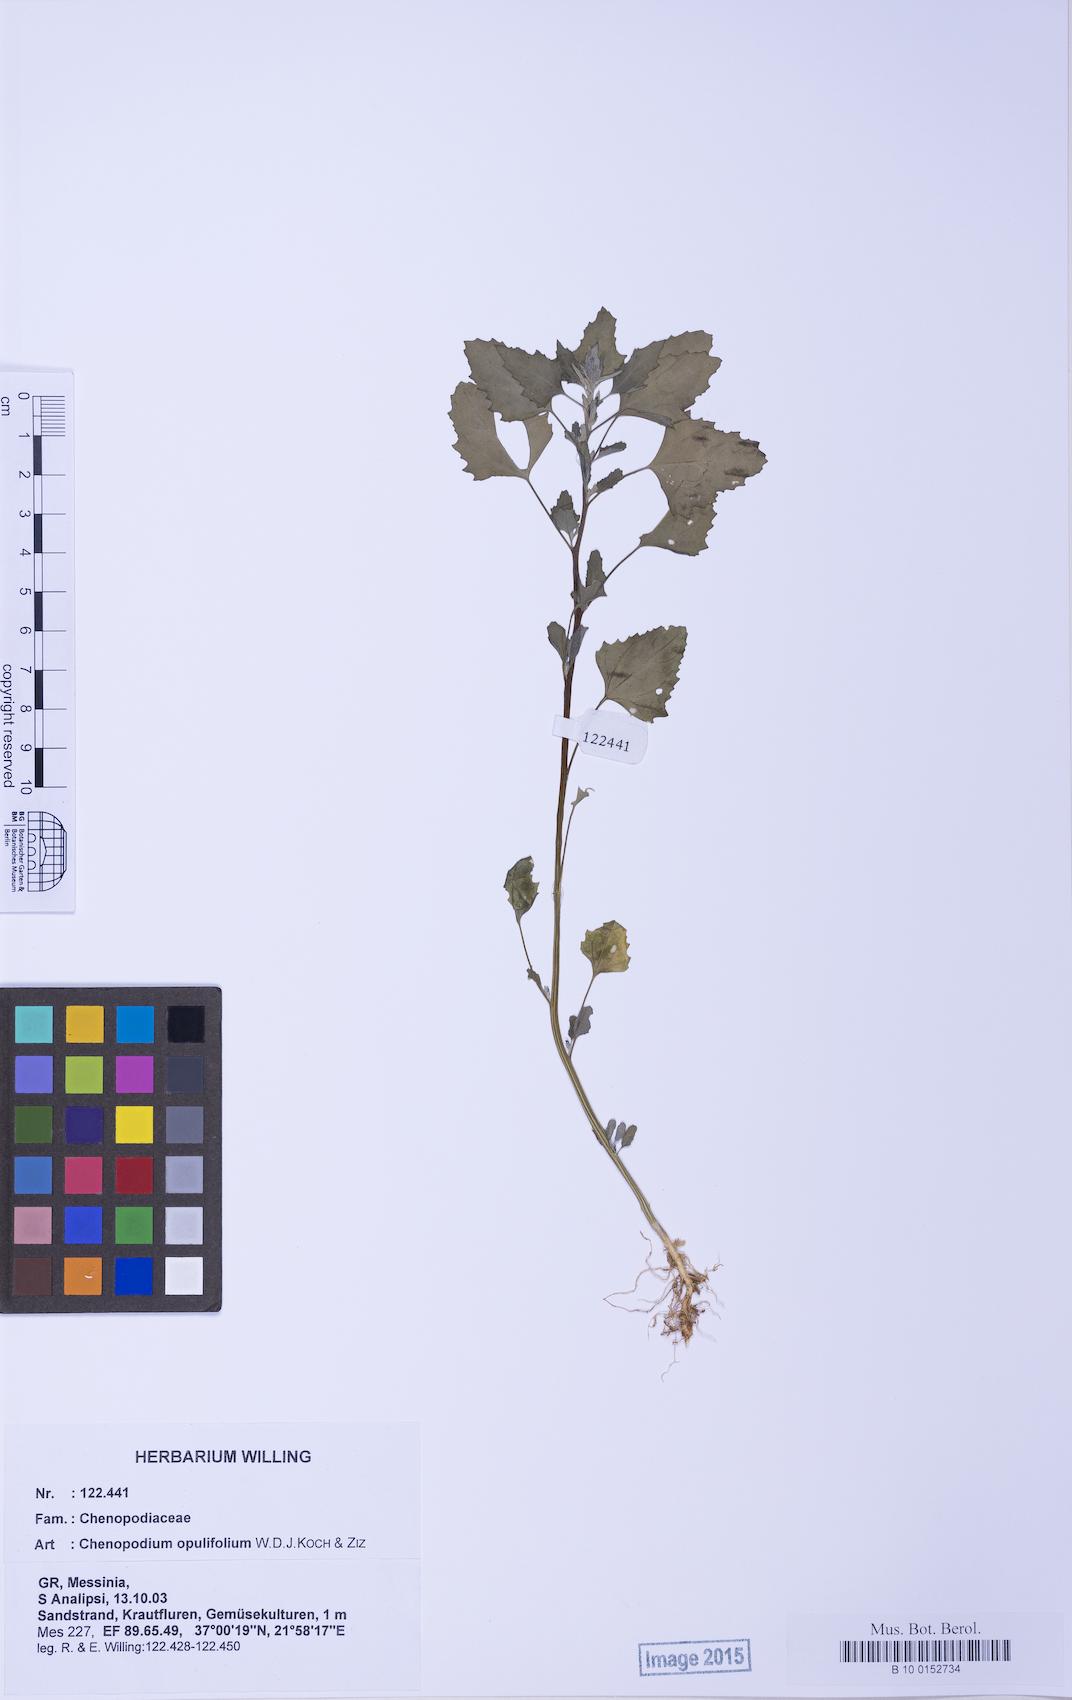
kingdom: Plantae
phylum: Tracheophyta
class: Magnoliopsida
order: Caryophyllales
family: Amaranthaceae
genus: Chenopodium
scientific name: Chenopodium album
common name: Fat-hen
